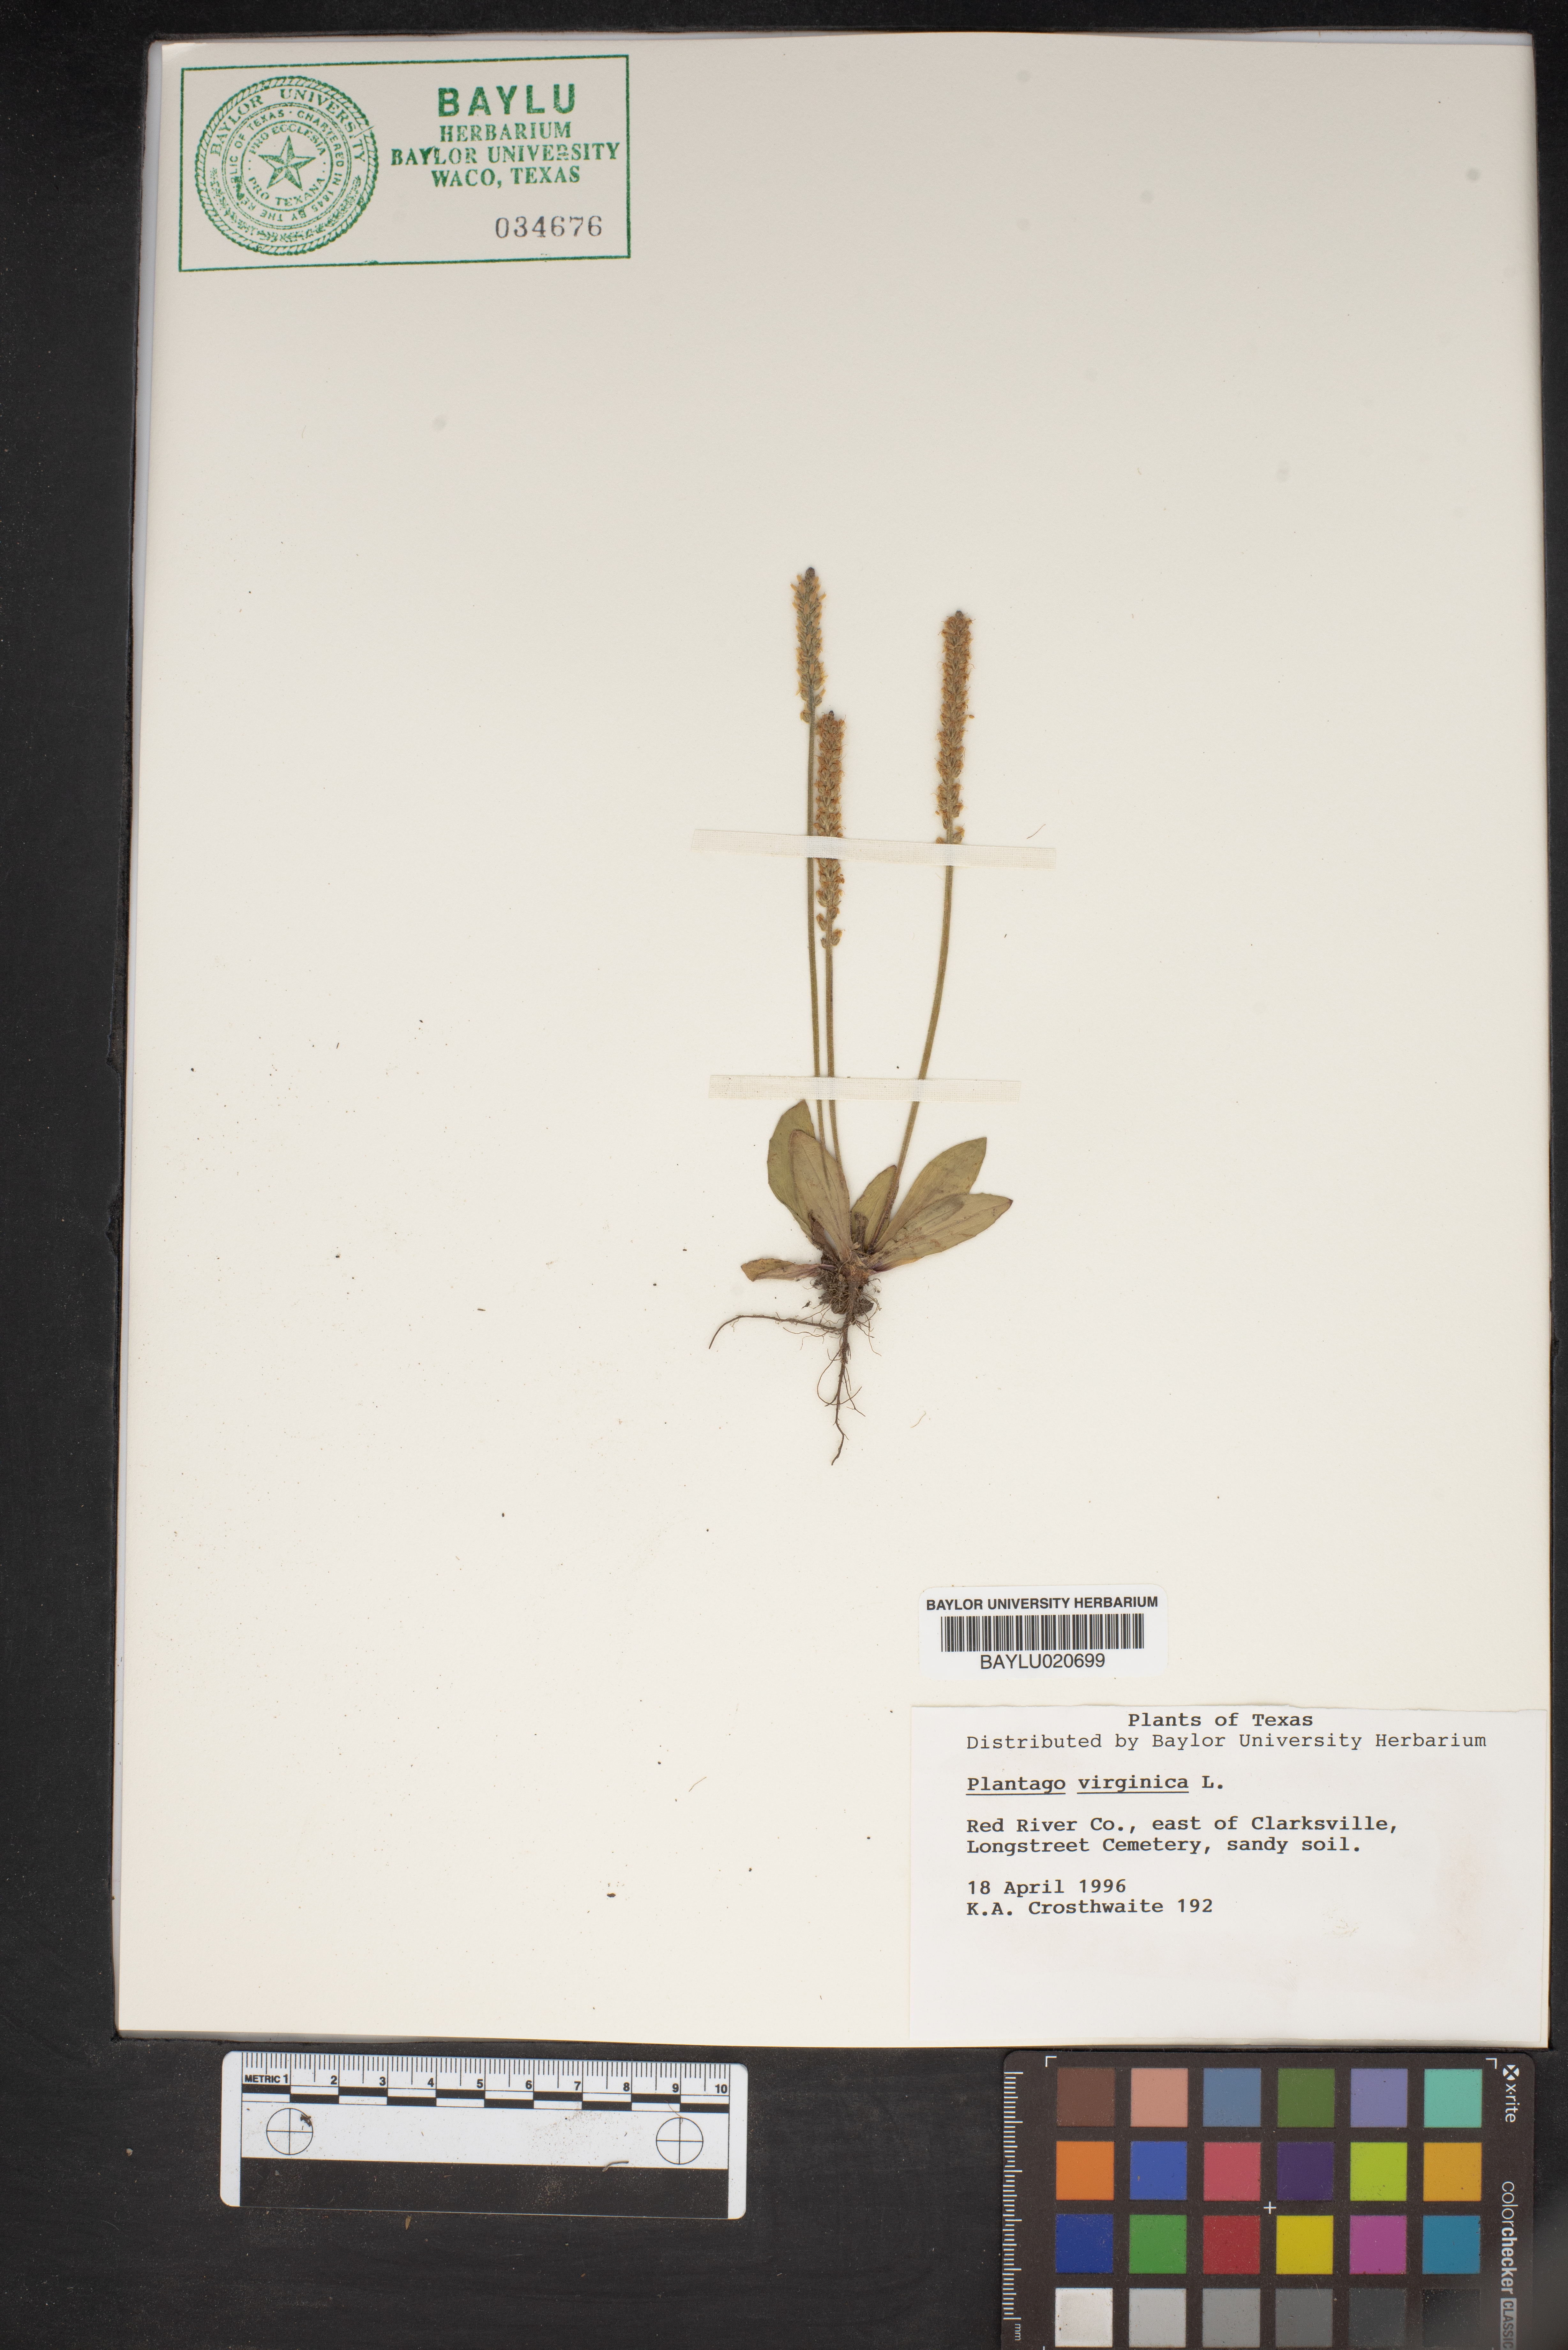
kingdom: Plantae
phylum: Tracheophyta
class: Magnoliopsida
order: Lamiales
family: Plantaginaceae
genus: Plantago
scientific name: Plantago virginica
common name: Hoary plantain
